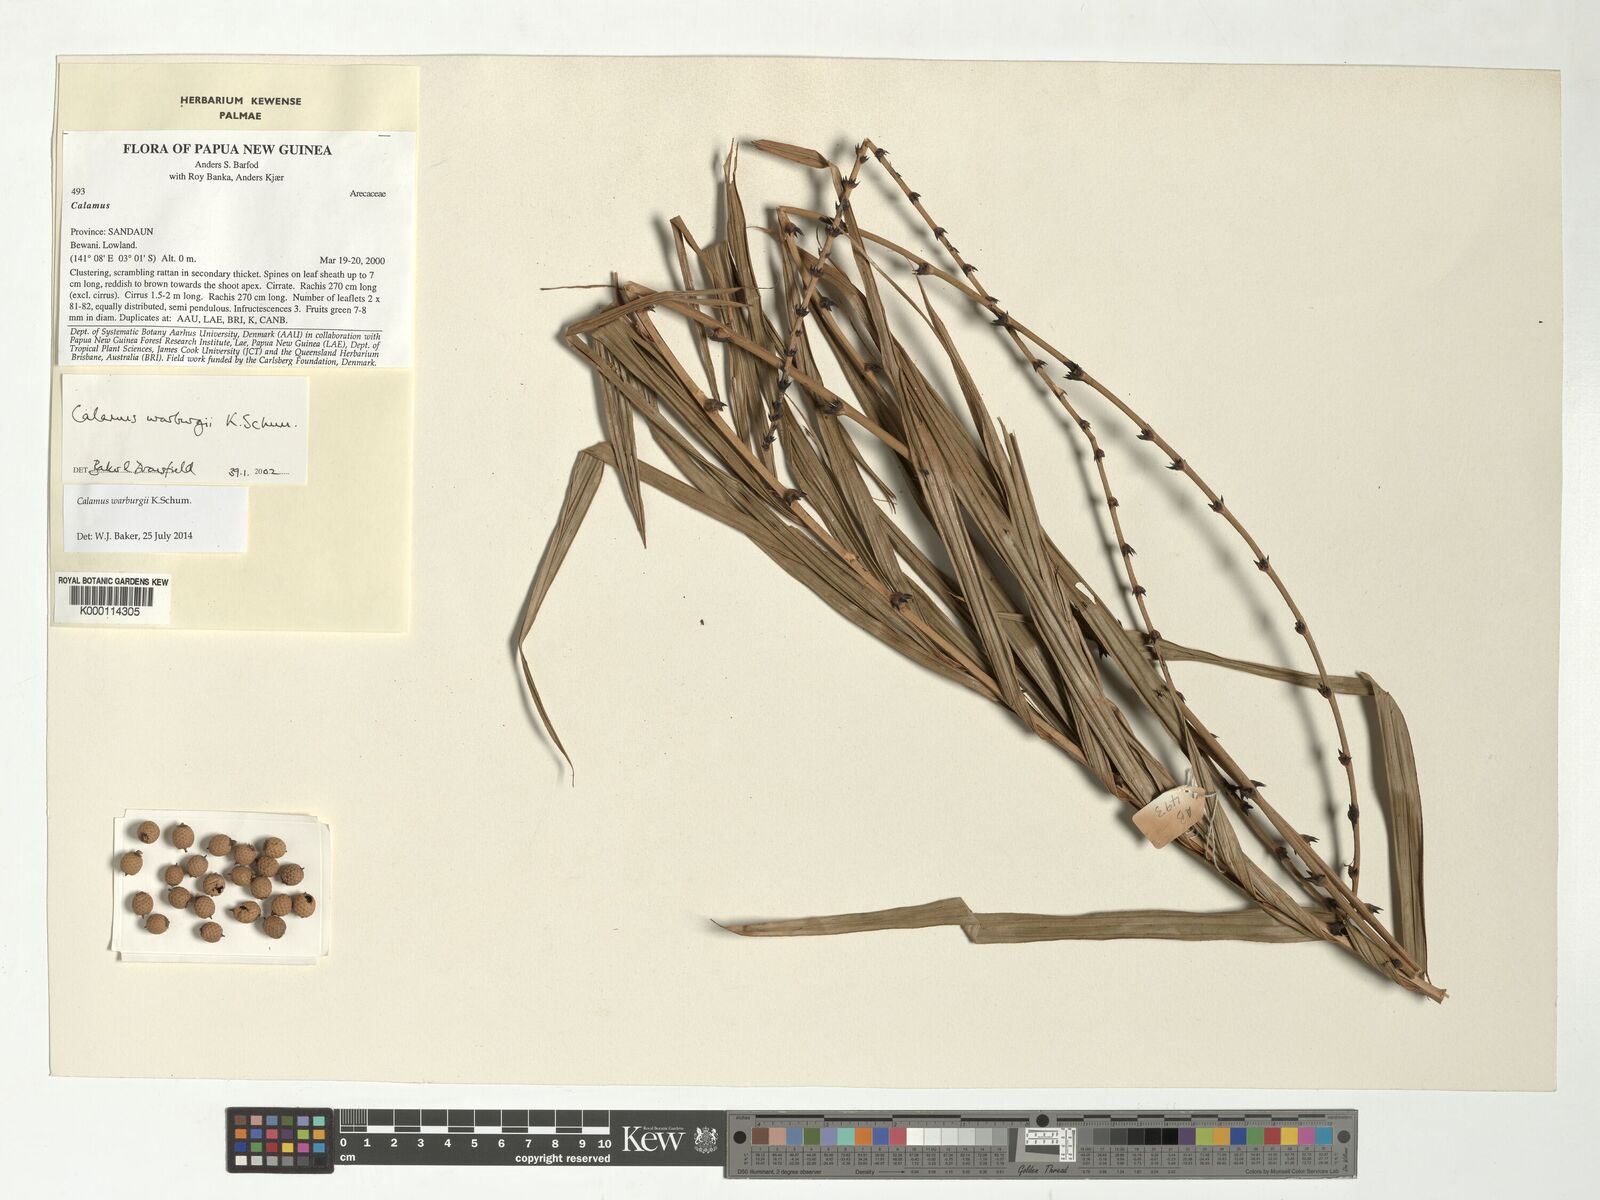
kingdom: Plantae
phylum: Tracheophyta
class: Liliopsida
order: Arecales
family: Arecaceae
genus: Calamus
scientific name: Calamus warburgii
